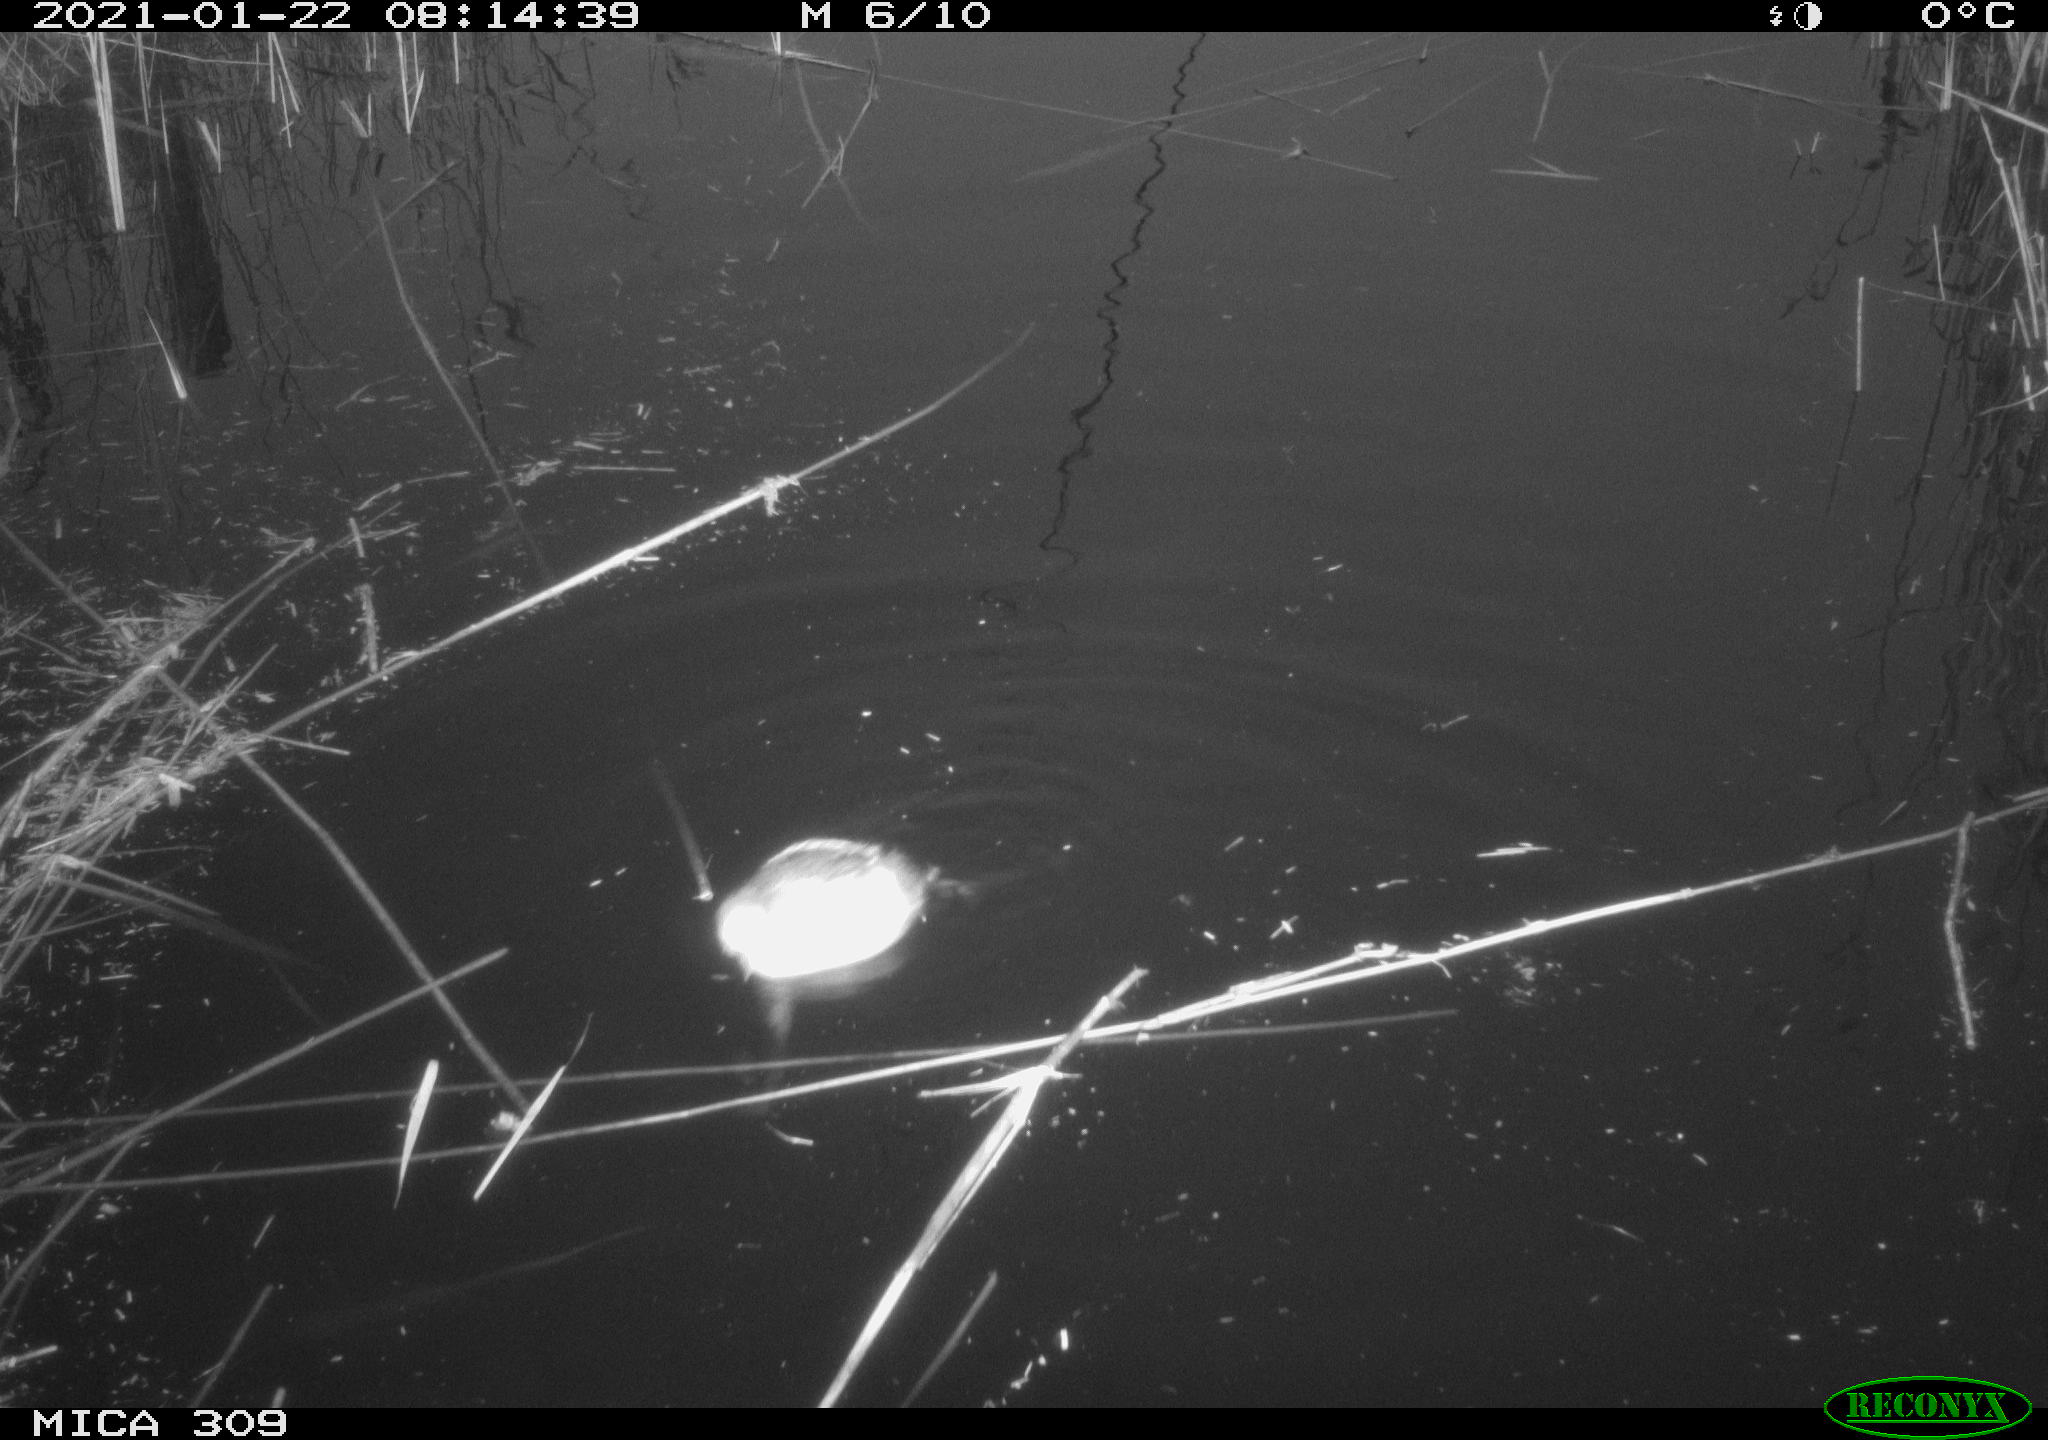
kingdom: Animalia
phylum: Chordata
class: Aves
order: Podicipediformes
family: Podicipedidae
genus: Tachybaptus
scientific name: Tachybaptus ruficollis
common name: Little grebe
